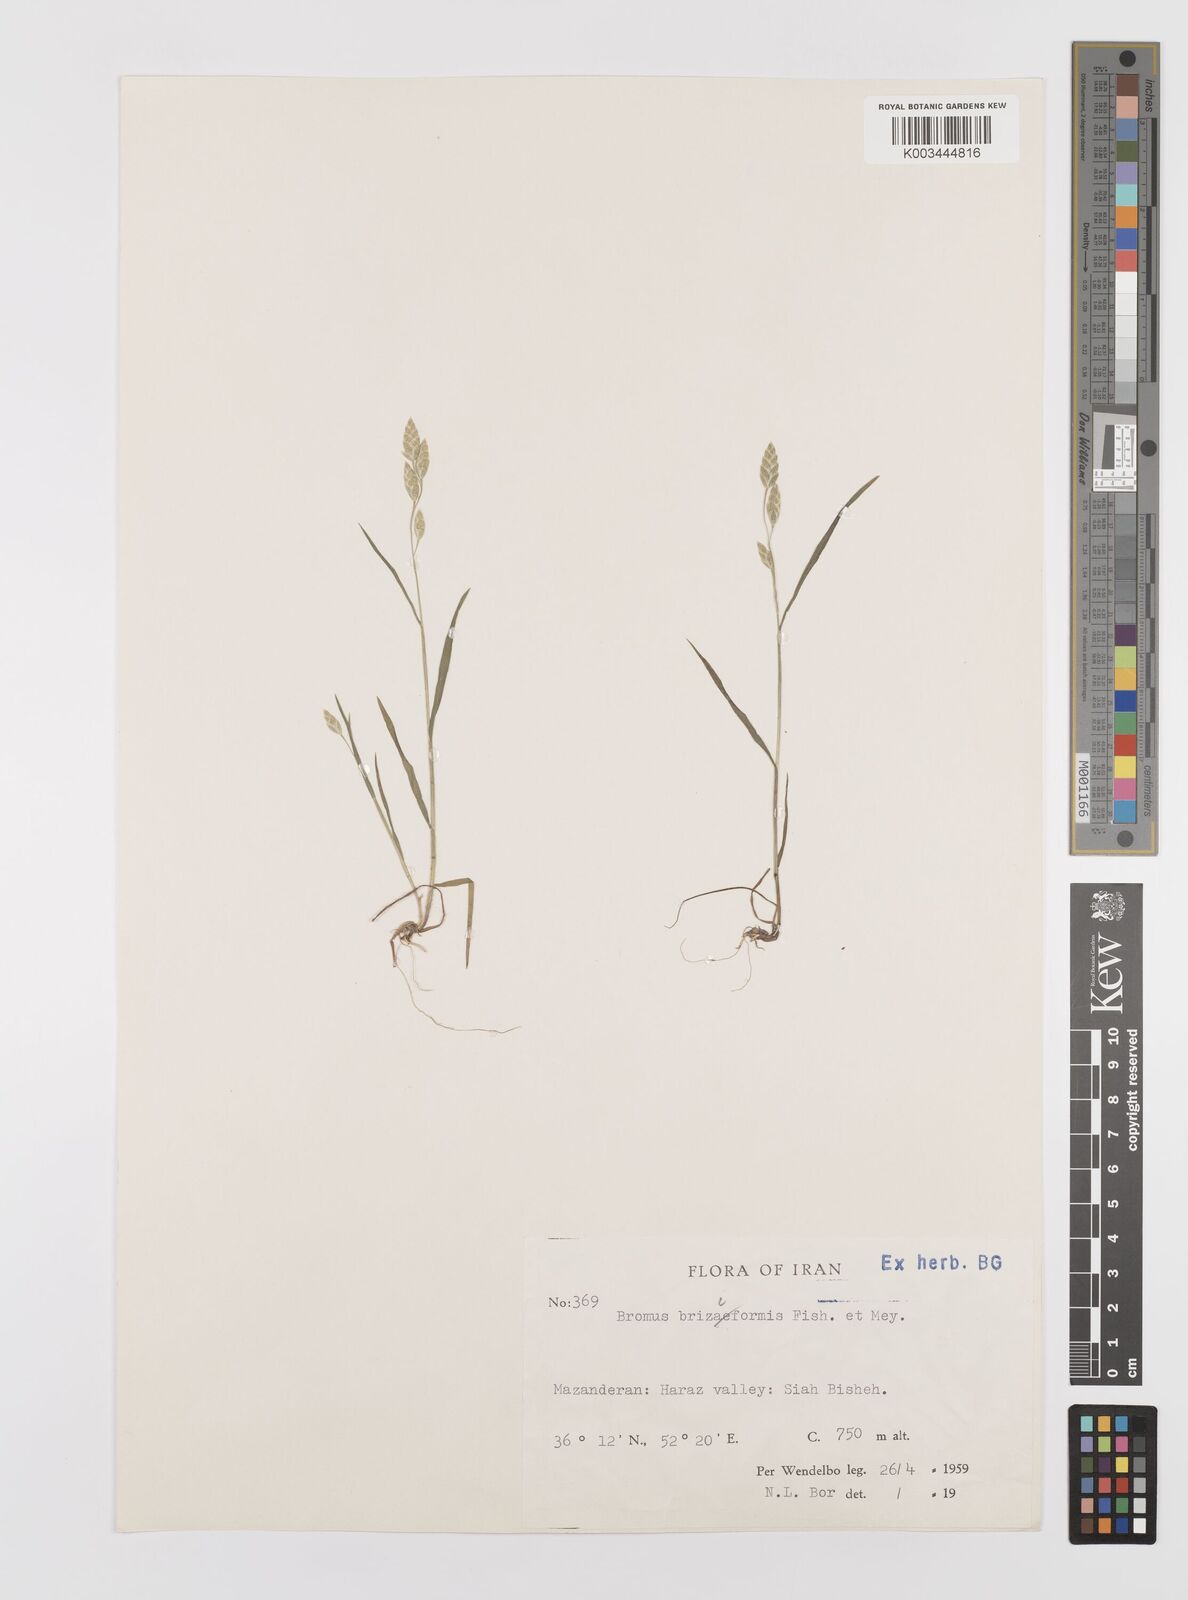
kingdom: Plantae
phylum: Tracheophyta
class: Liliopsida
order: Poales
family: Poaceae
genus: Bromus
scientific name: Bromus briziformis
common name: Rattlesnake brome
